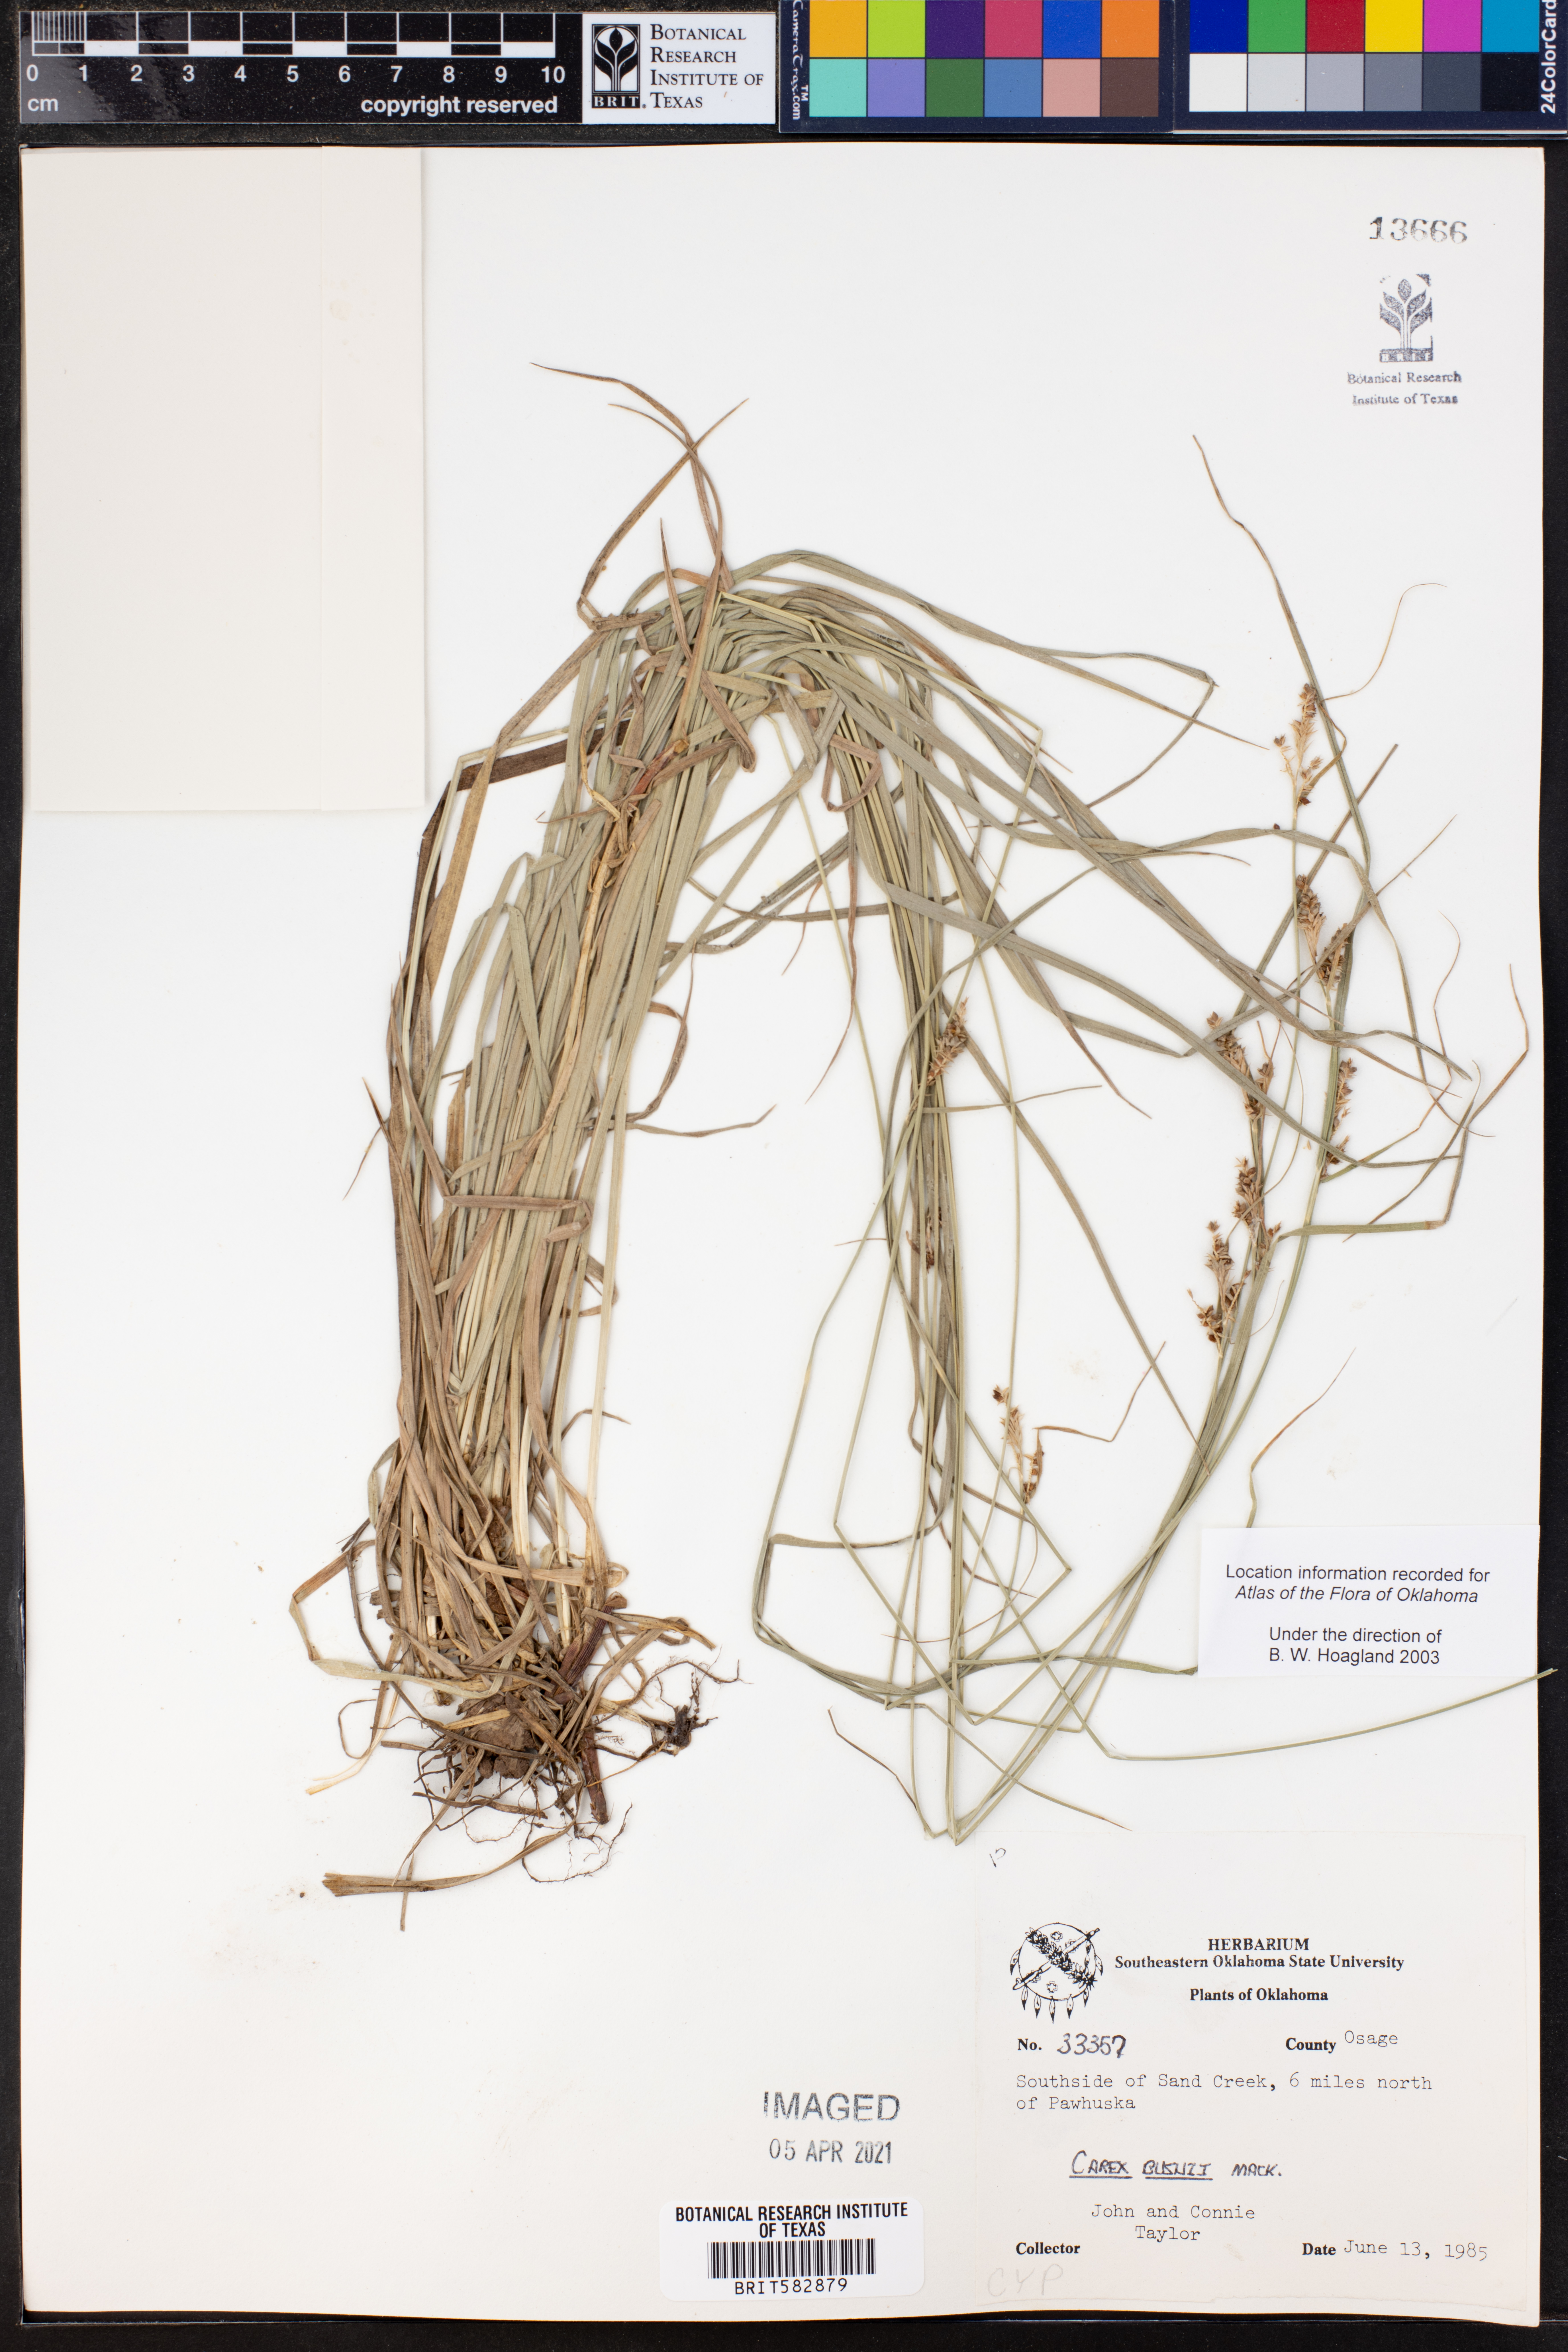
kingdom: Plantae
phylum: Tracheophyta
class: Liliopsida
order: Poales
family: Cyperaceae
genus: Carex
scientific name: Carex bushii
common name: Bush's sedge
